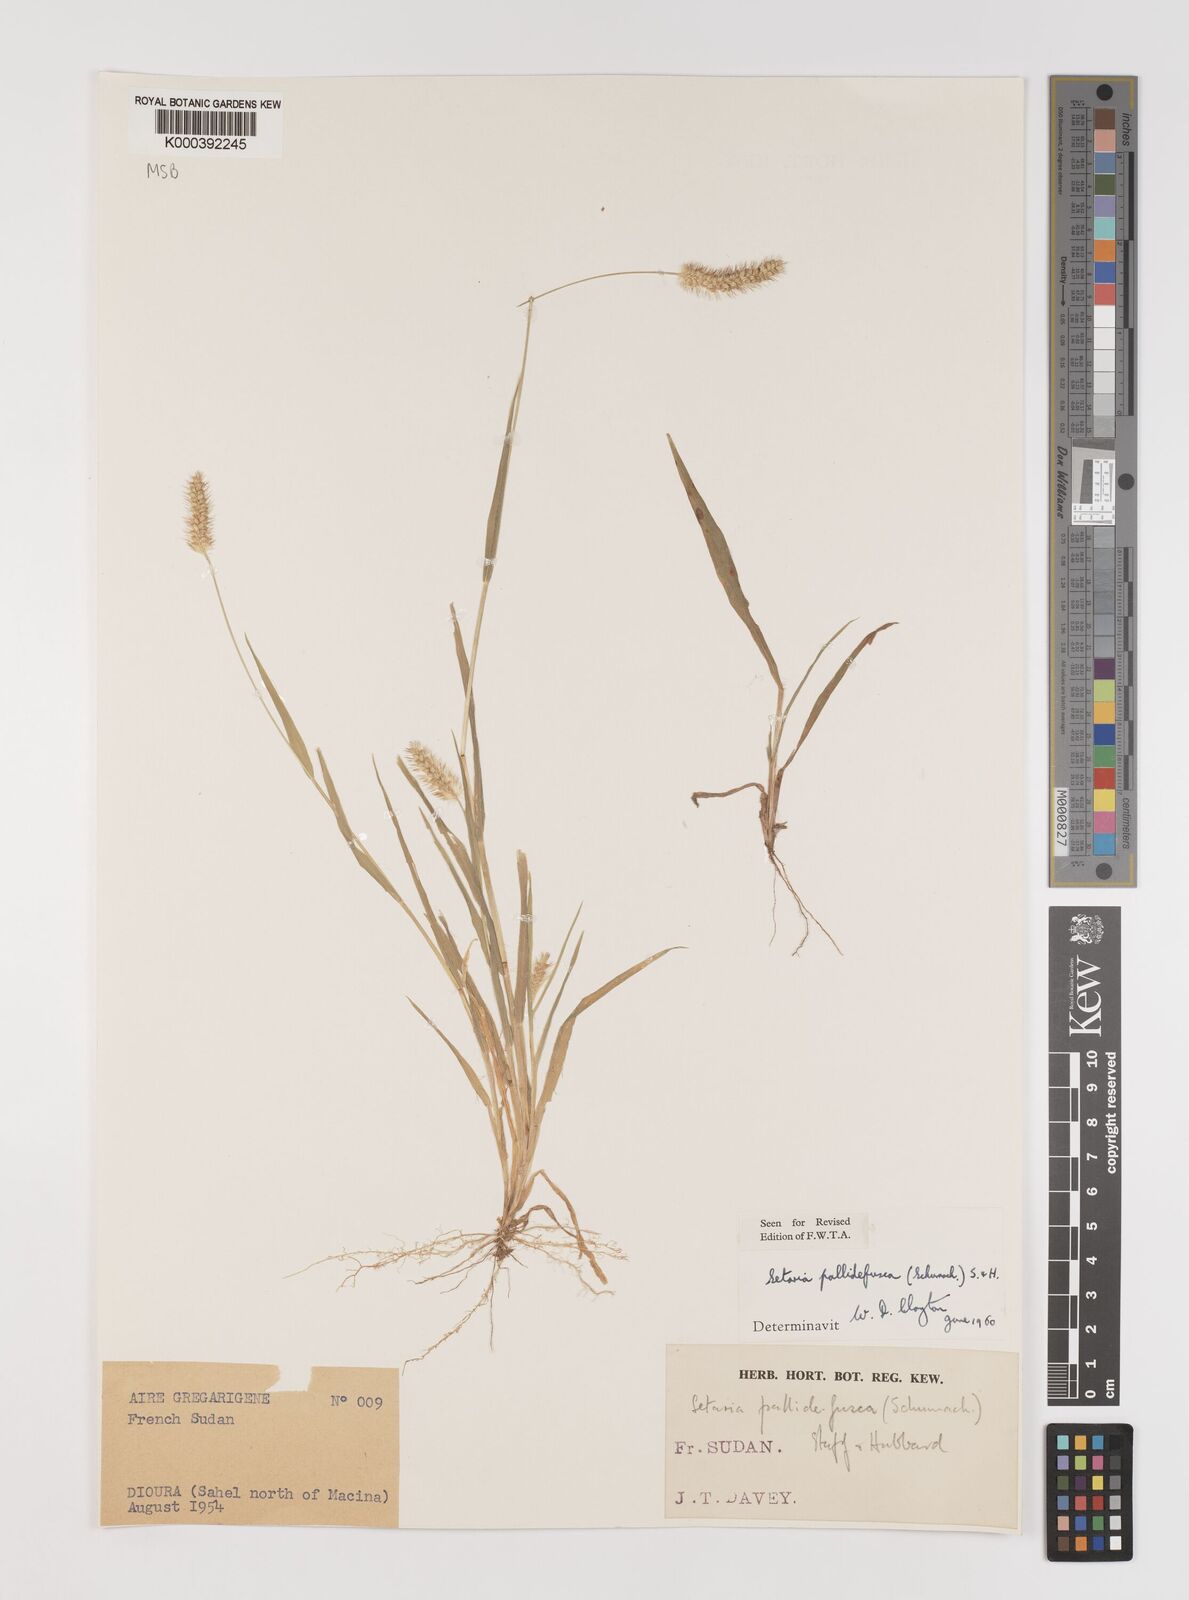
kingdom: Plantae
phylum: Tracheophyta
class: Liliopsida
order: Poales
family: Poaceae
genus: Setaria
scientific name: Setaria pumila
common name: Yellow bristle-grass
